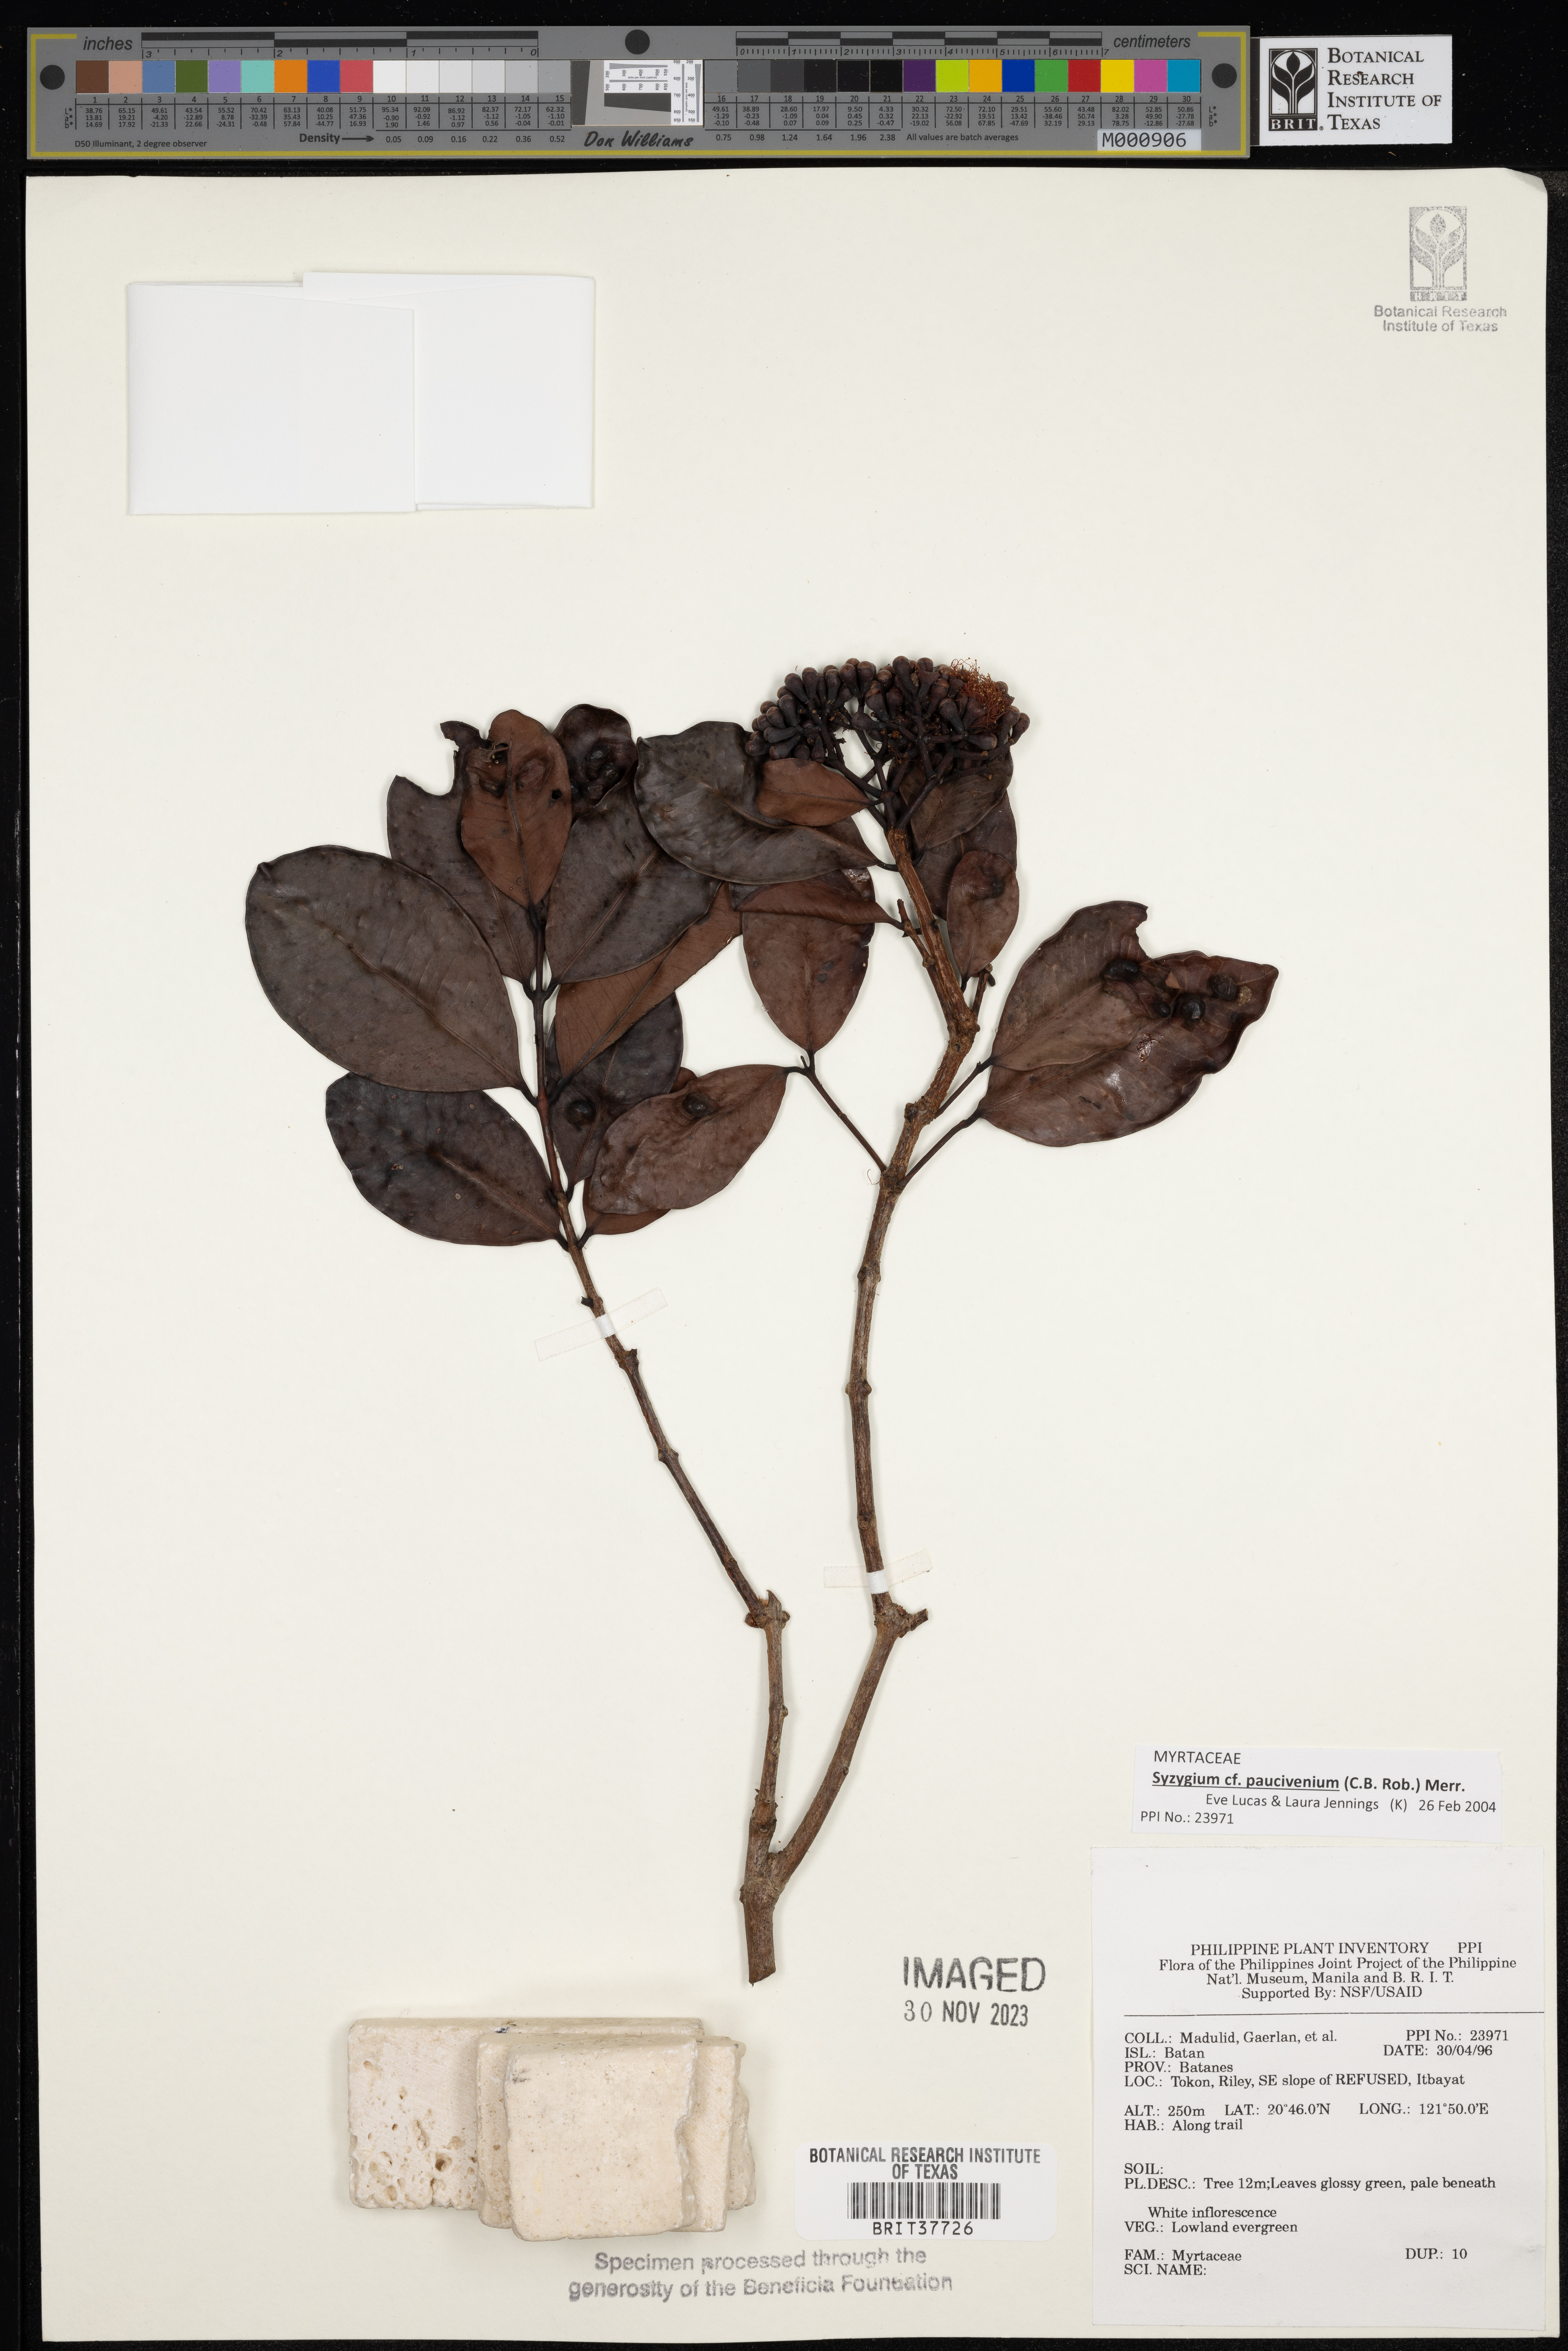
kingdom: Plantae
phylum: Tracheophyta
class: Magnoliopsida
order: Myrtales
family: Myrtaceae
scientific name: Myrtaceae
